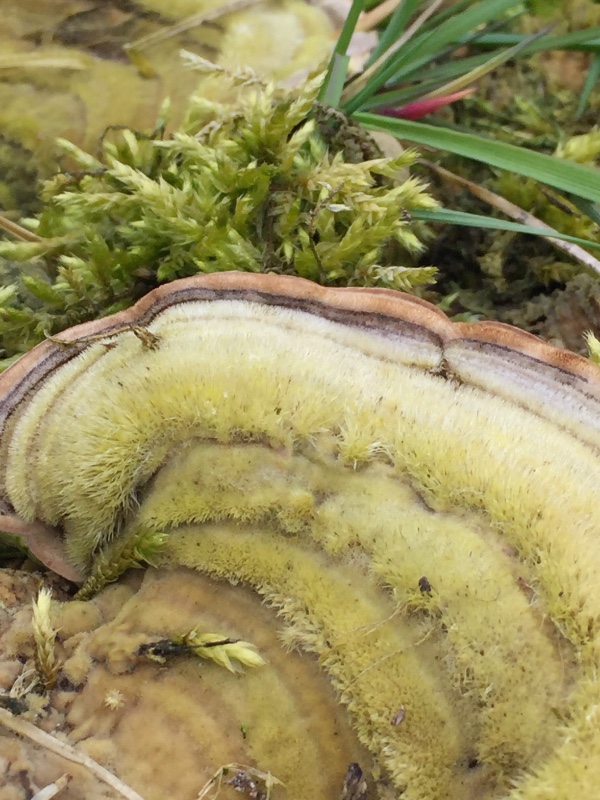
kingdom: Fungi
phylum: Basidiomycota
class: Agaricomycetes
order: Polyporales
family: Polyporaceae
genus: Trametes
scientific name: Trametes hirsuta
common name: håret læderporesvamp
